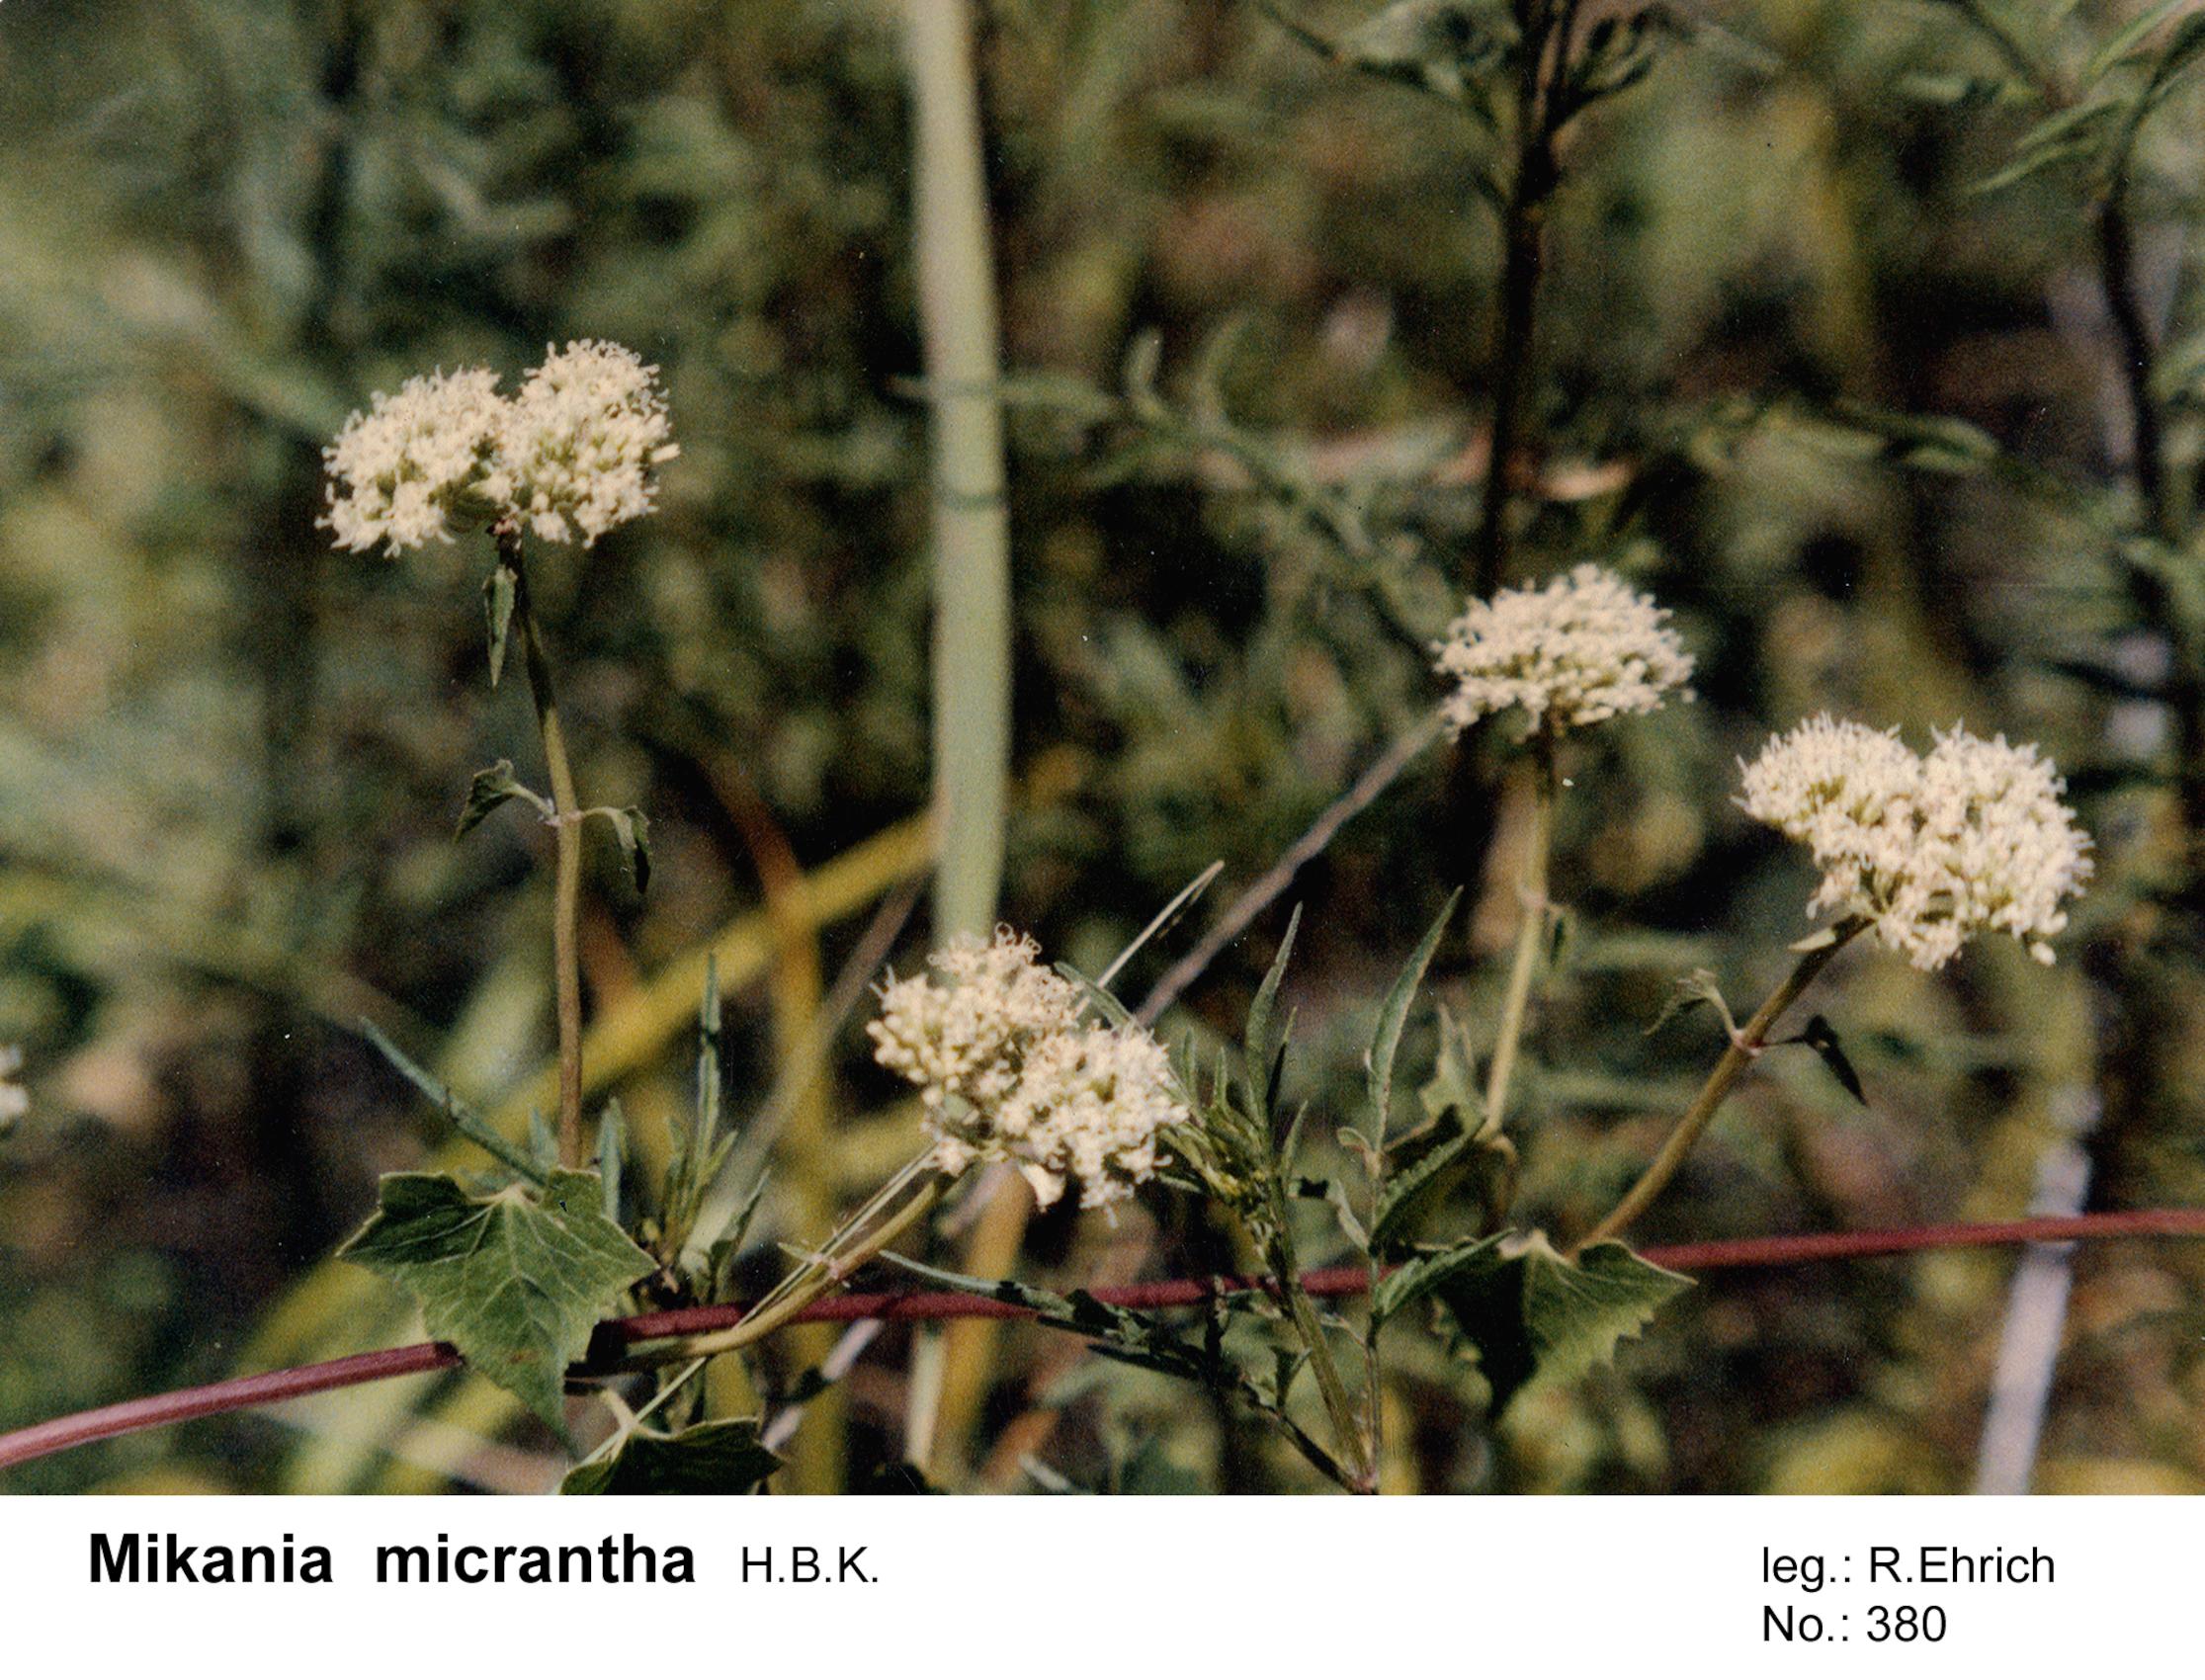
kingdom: Plantae
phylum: Tracheophyta
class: Magnoliopsida
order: Asterales
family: Asteraceae
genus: Mikania
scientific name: Mikania micrantha
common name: Mile-a-minute
